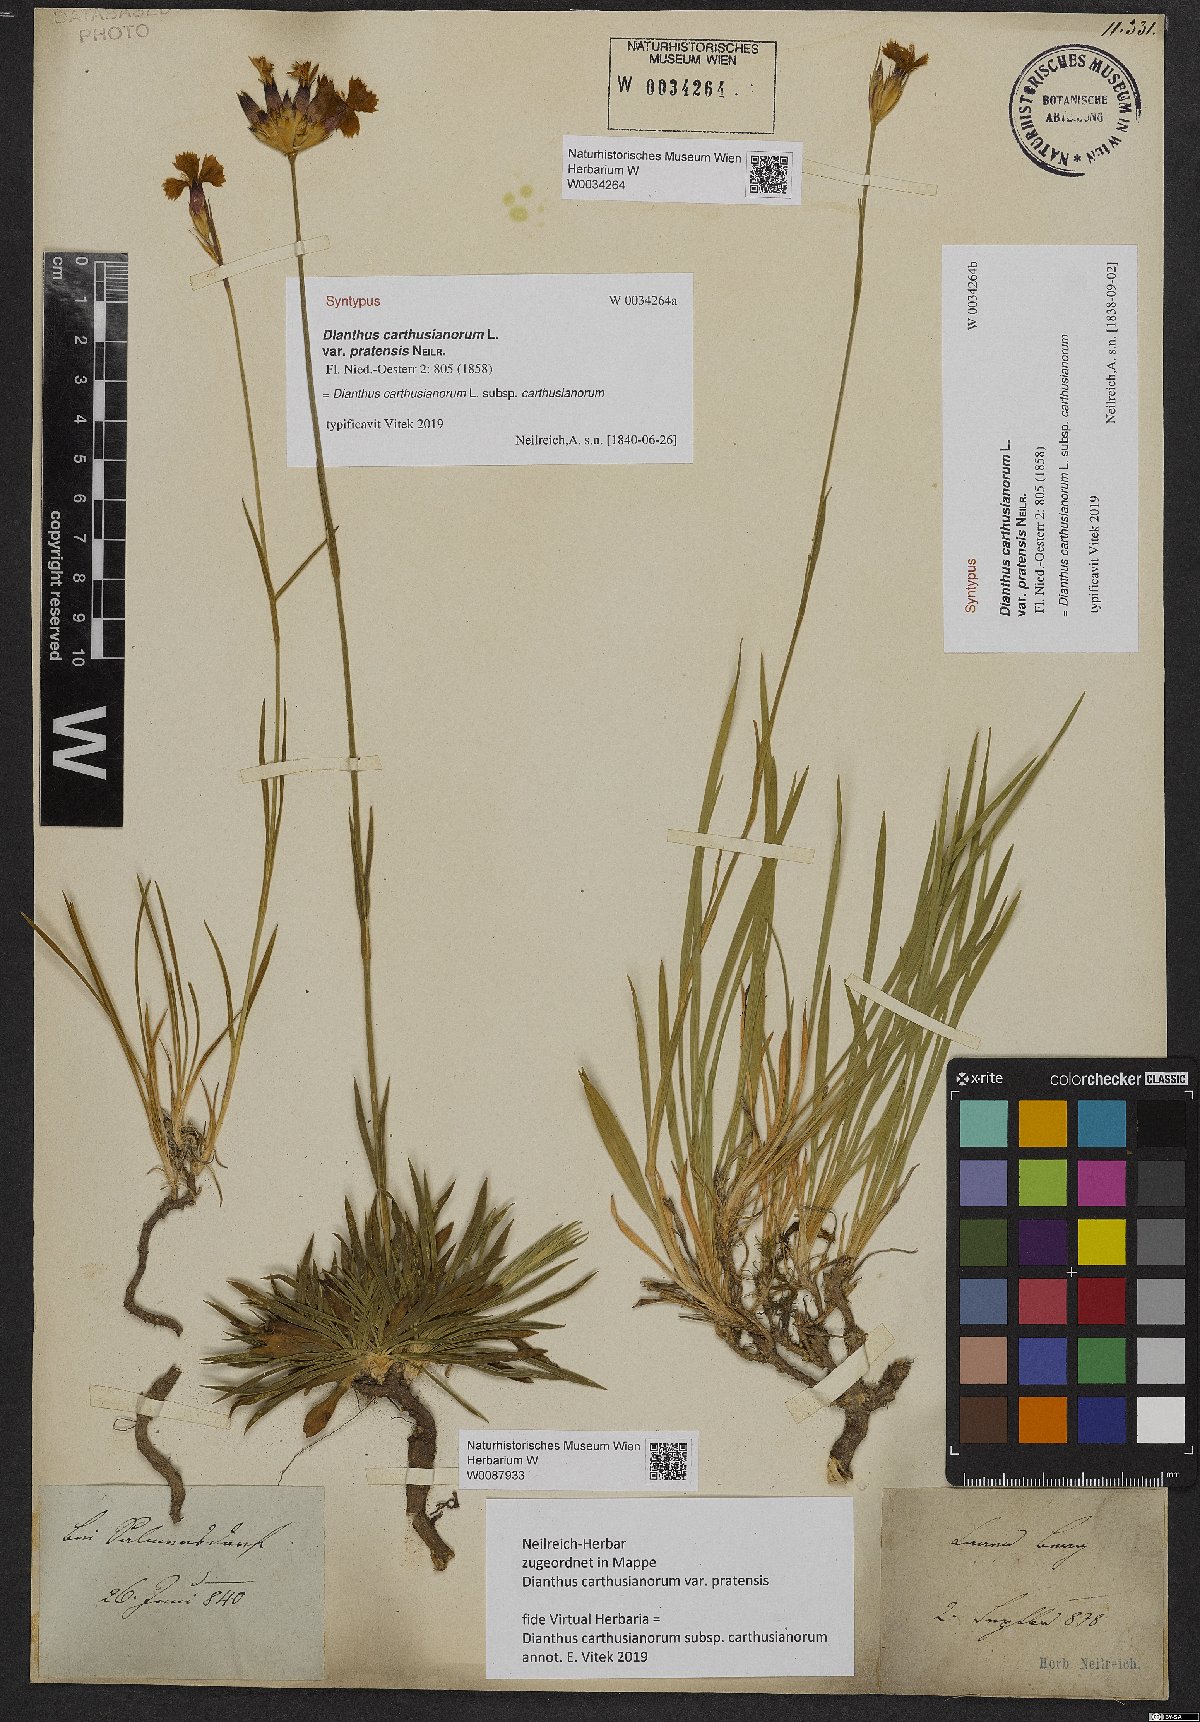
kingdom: Plantae
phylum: Tracheophyta
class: Magnoliopsida
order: Caryophyllales
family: Caryophyllaceae
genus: Dianthus
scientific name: Dianthus carthusianorum
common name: Carthusian pink
